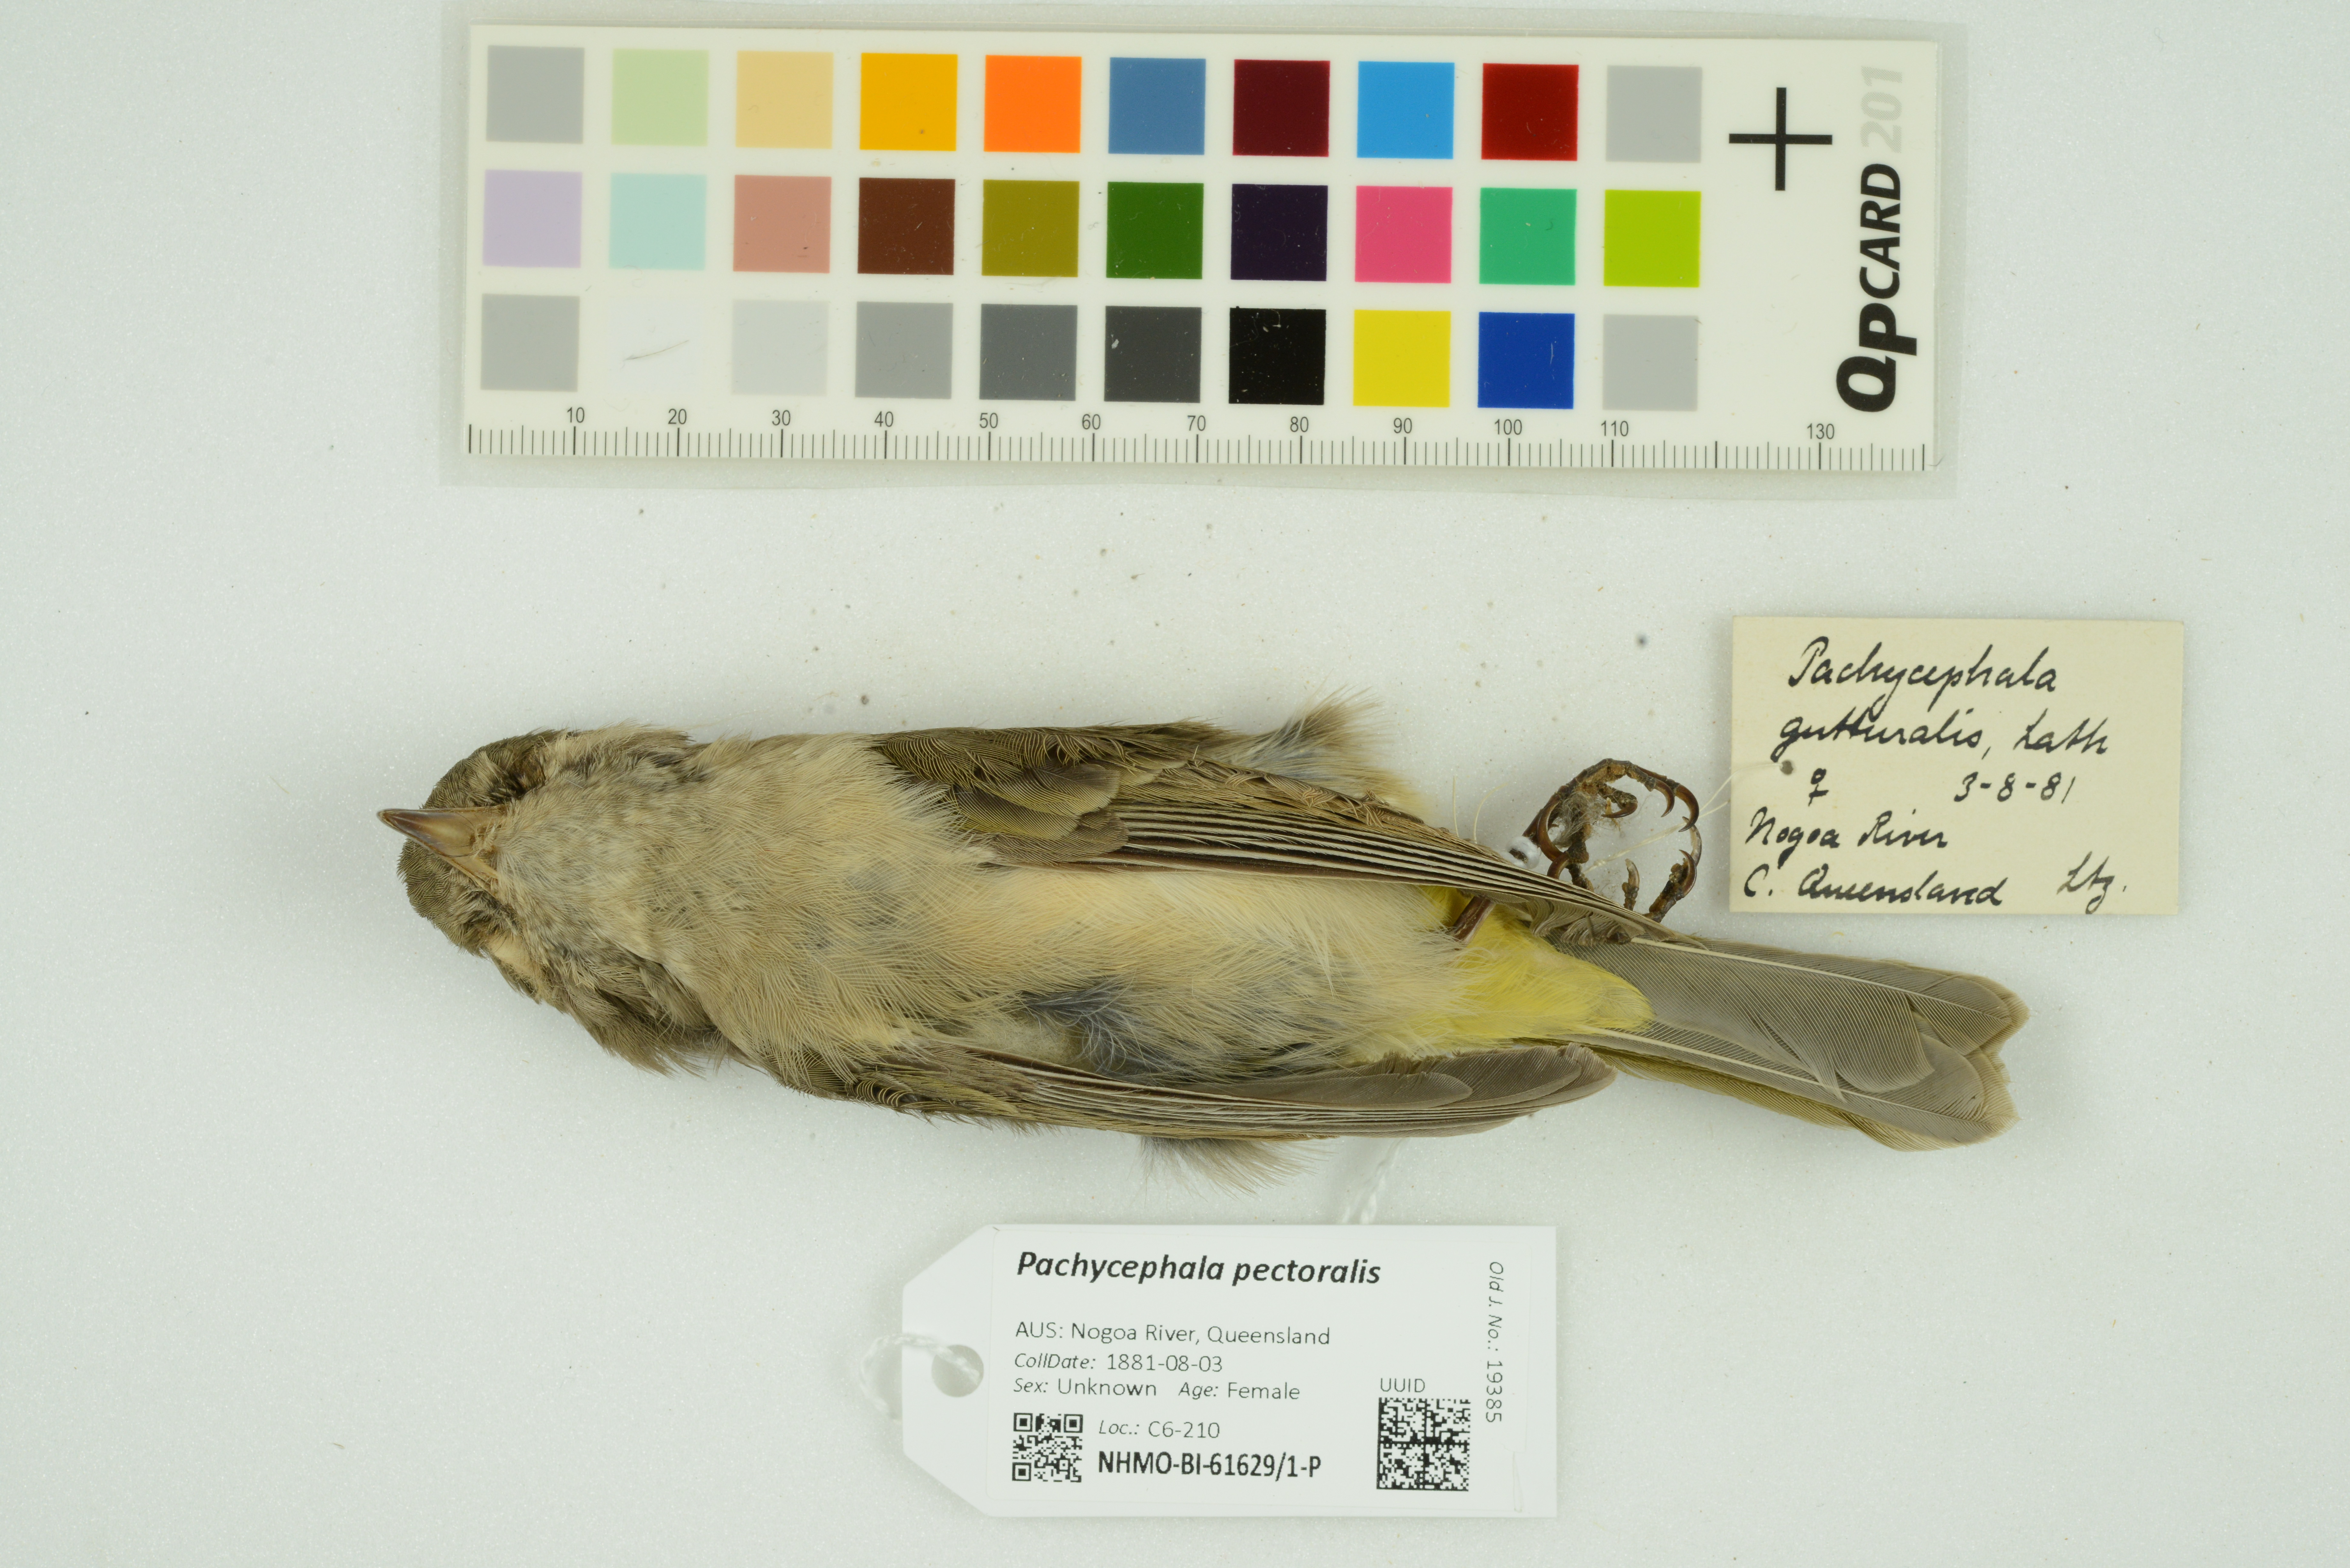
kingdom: Animalia
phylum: Chordata
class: Aves
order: Passeriformes
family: Pachycephalidae
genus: Pachycephala
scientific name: Pachycephala pectoralis
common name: Australian golden whistler
